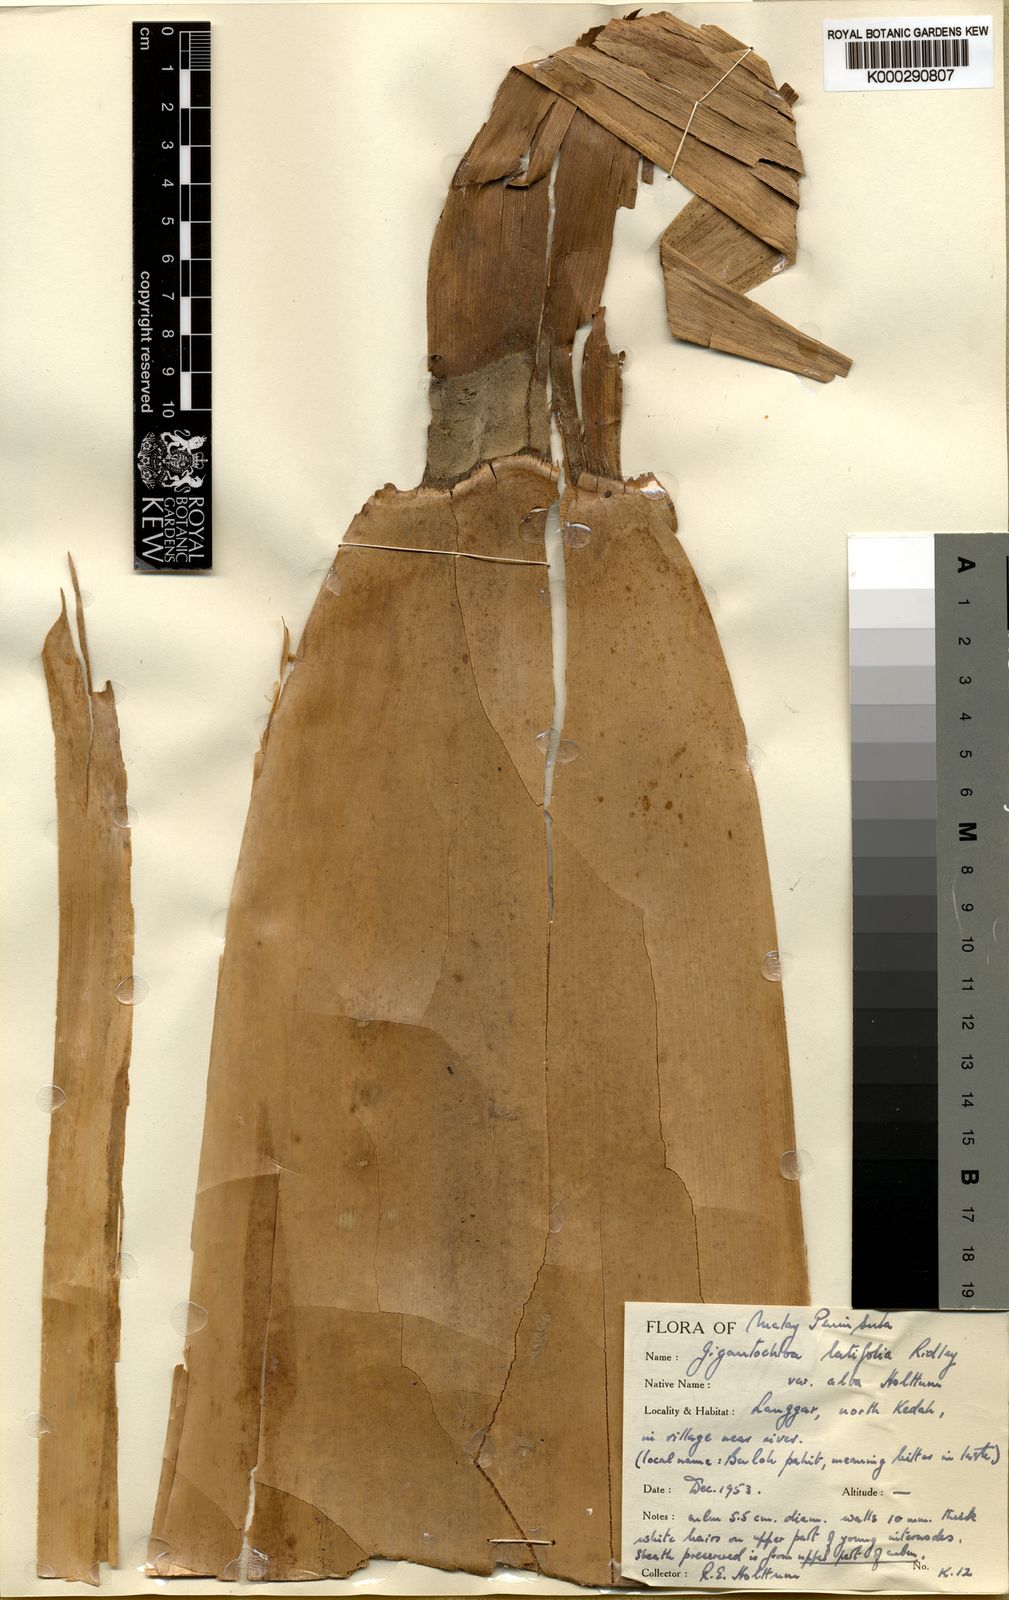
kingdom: Plantae
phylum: Tracheophyta
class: Liliopsida
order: Poales
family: Poaceae
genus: Gigantochloa
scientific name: Gigantochloa latifolia
